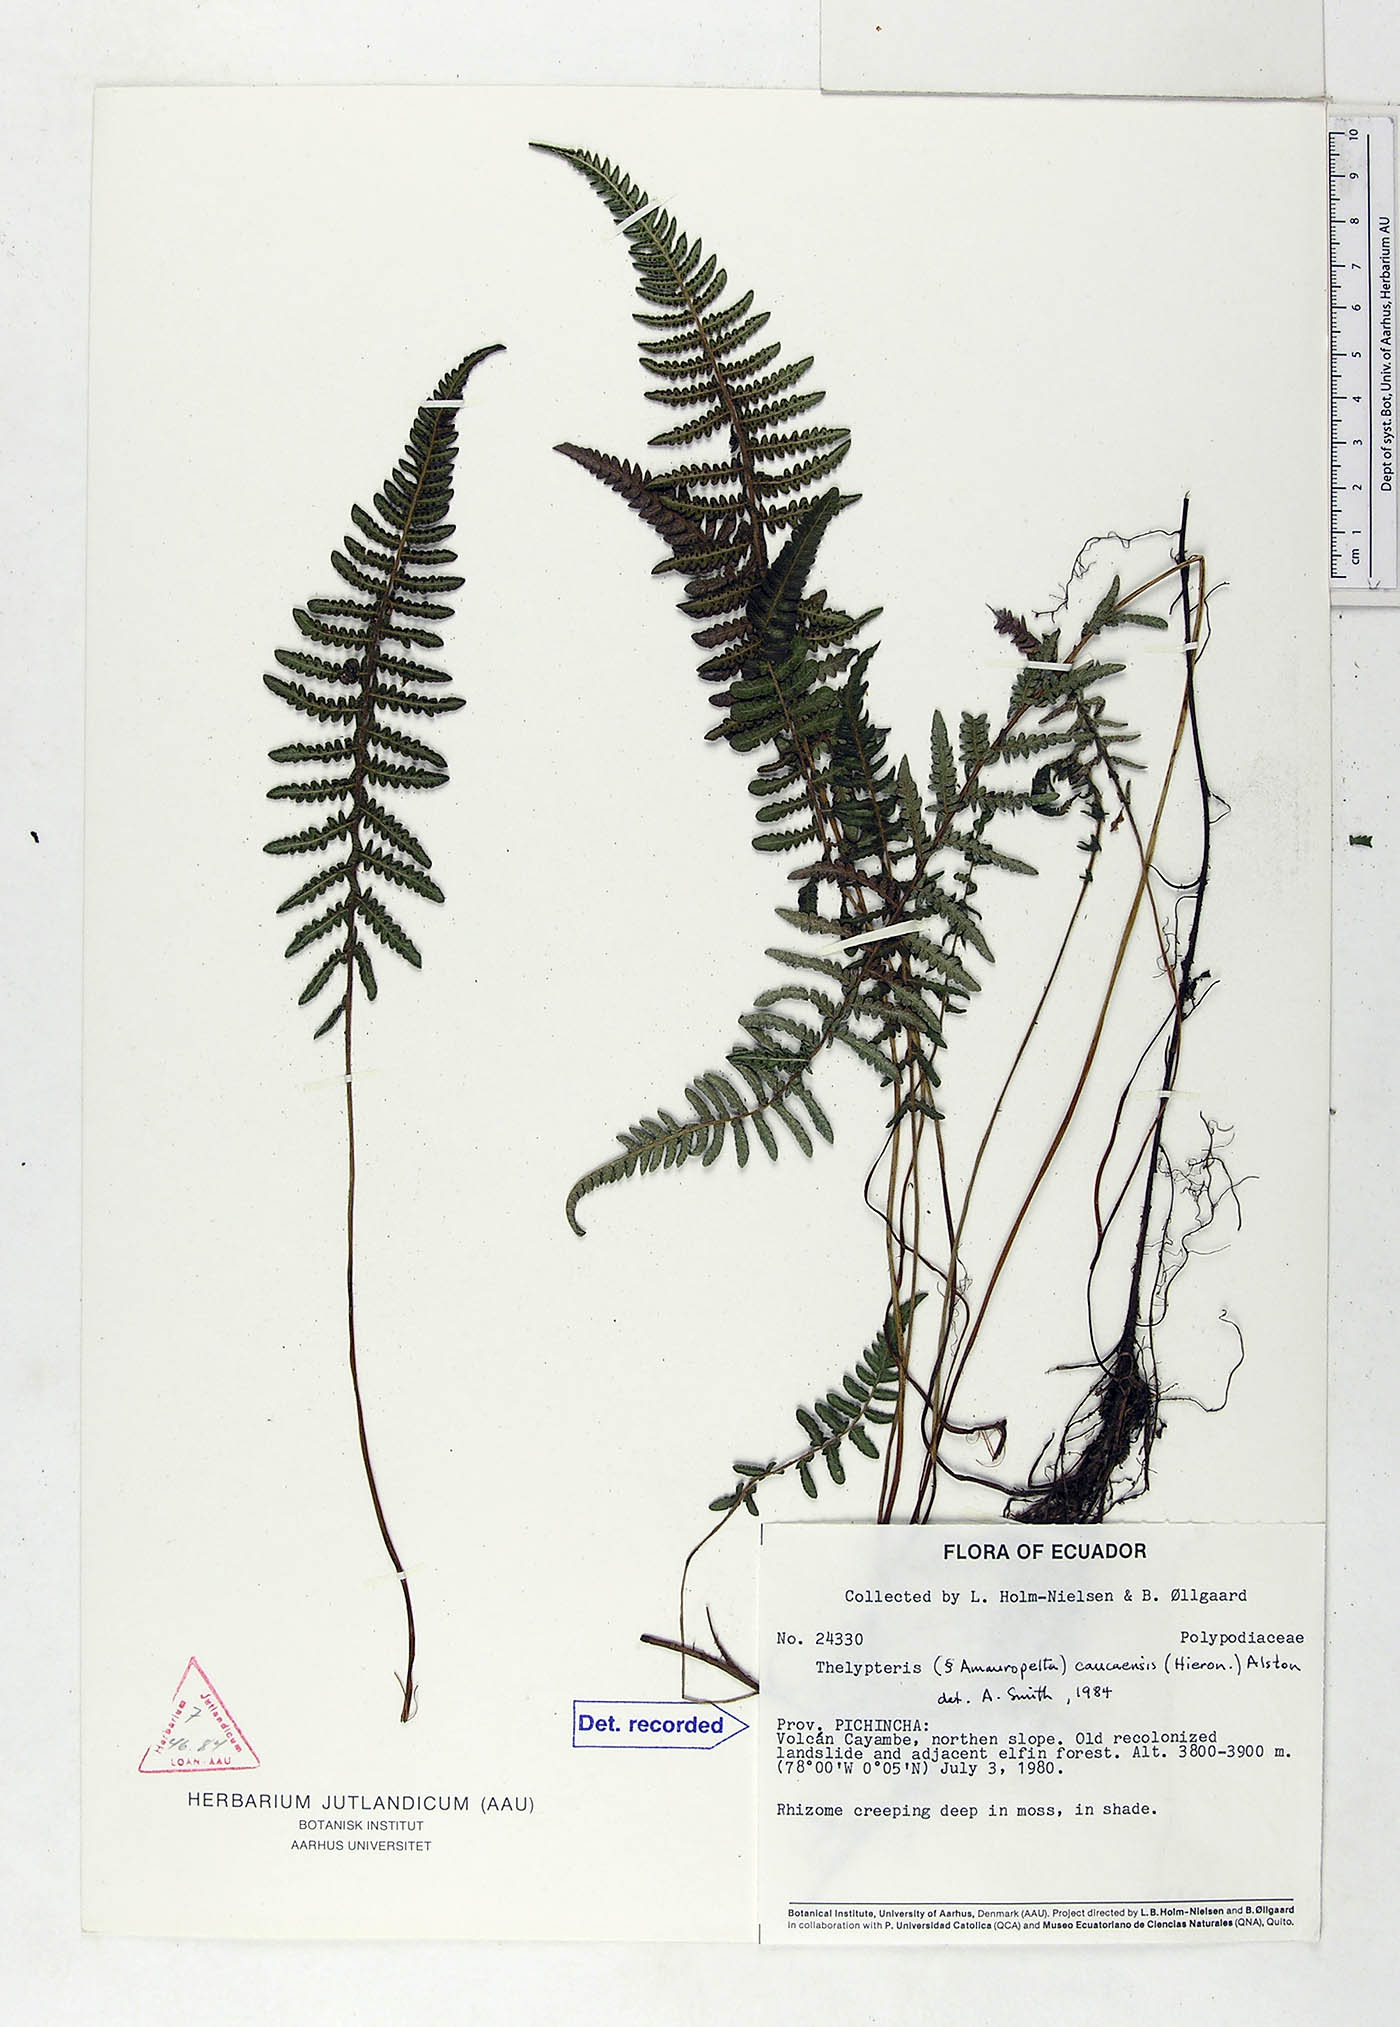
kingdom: Plantae
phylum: Tracheophyta
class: Polypodiopsida
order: Polypodiales
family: Thelypteridaceae
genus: Amauropelta
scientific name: Amauropelta caucaensis
